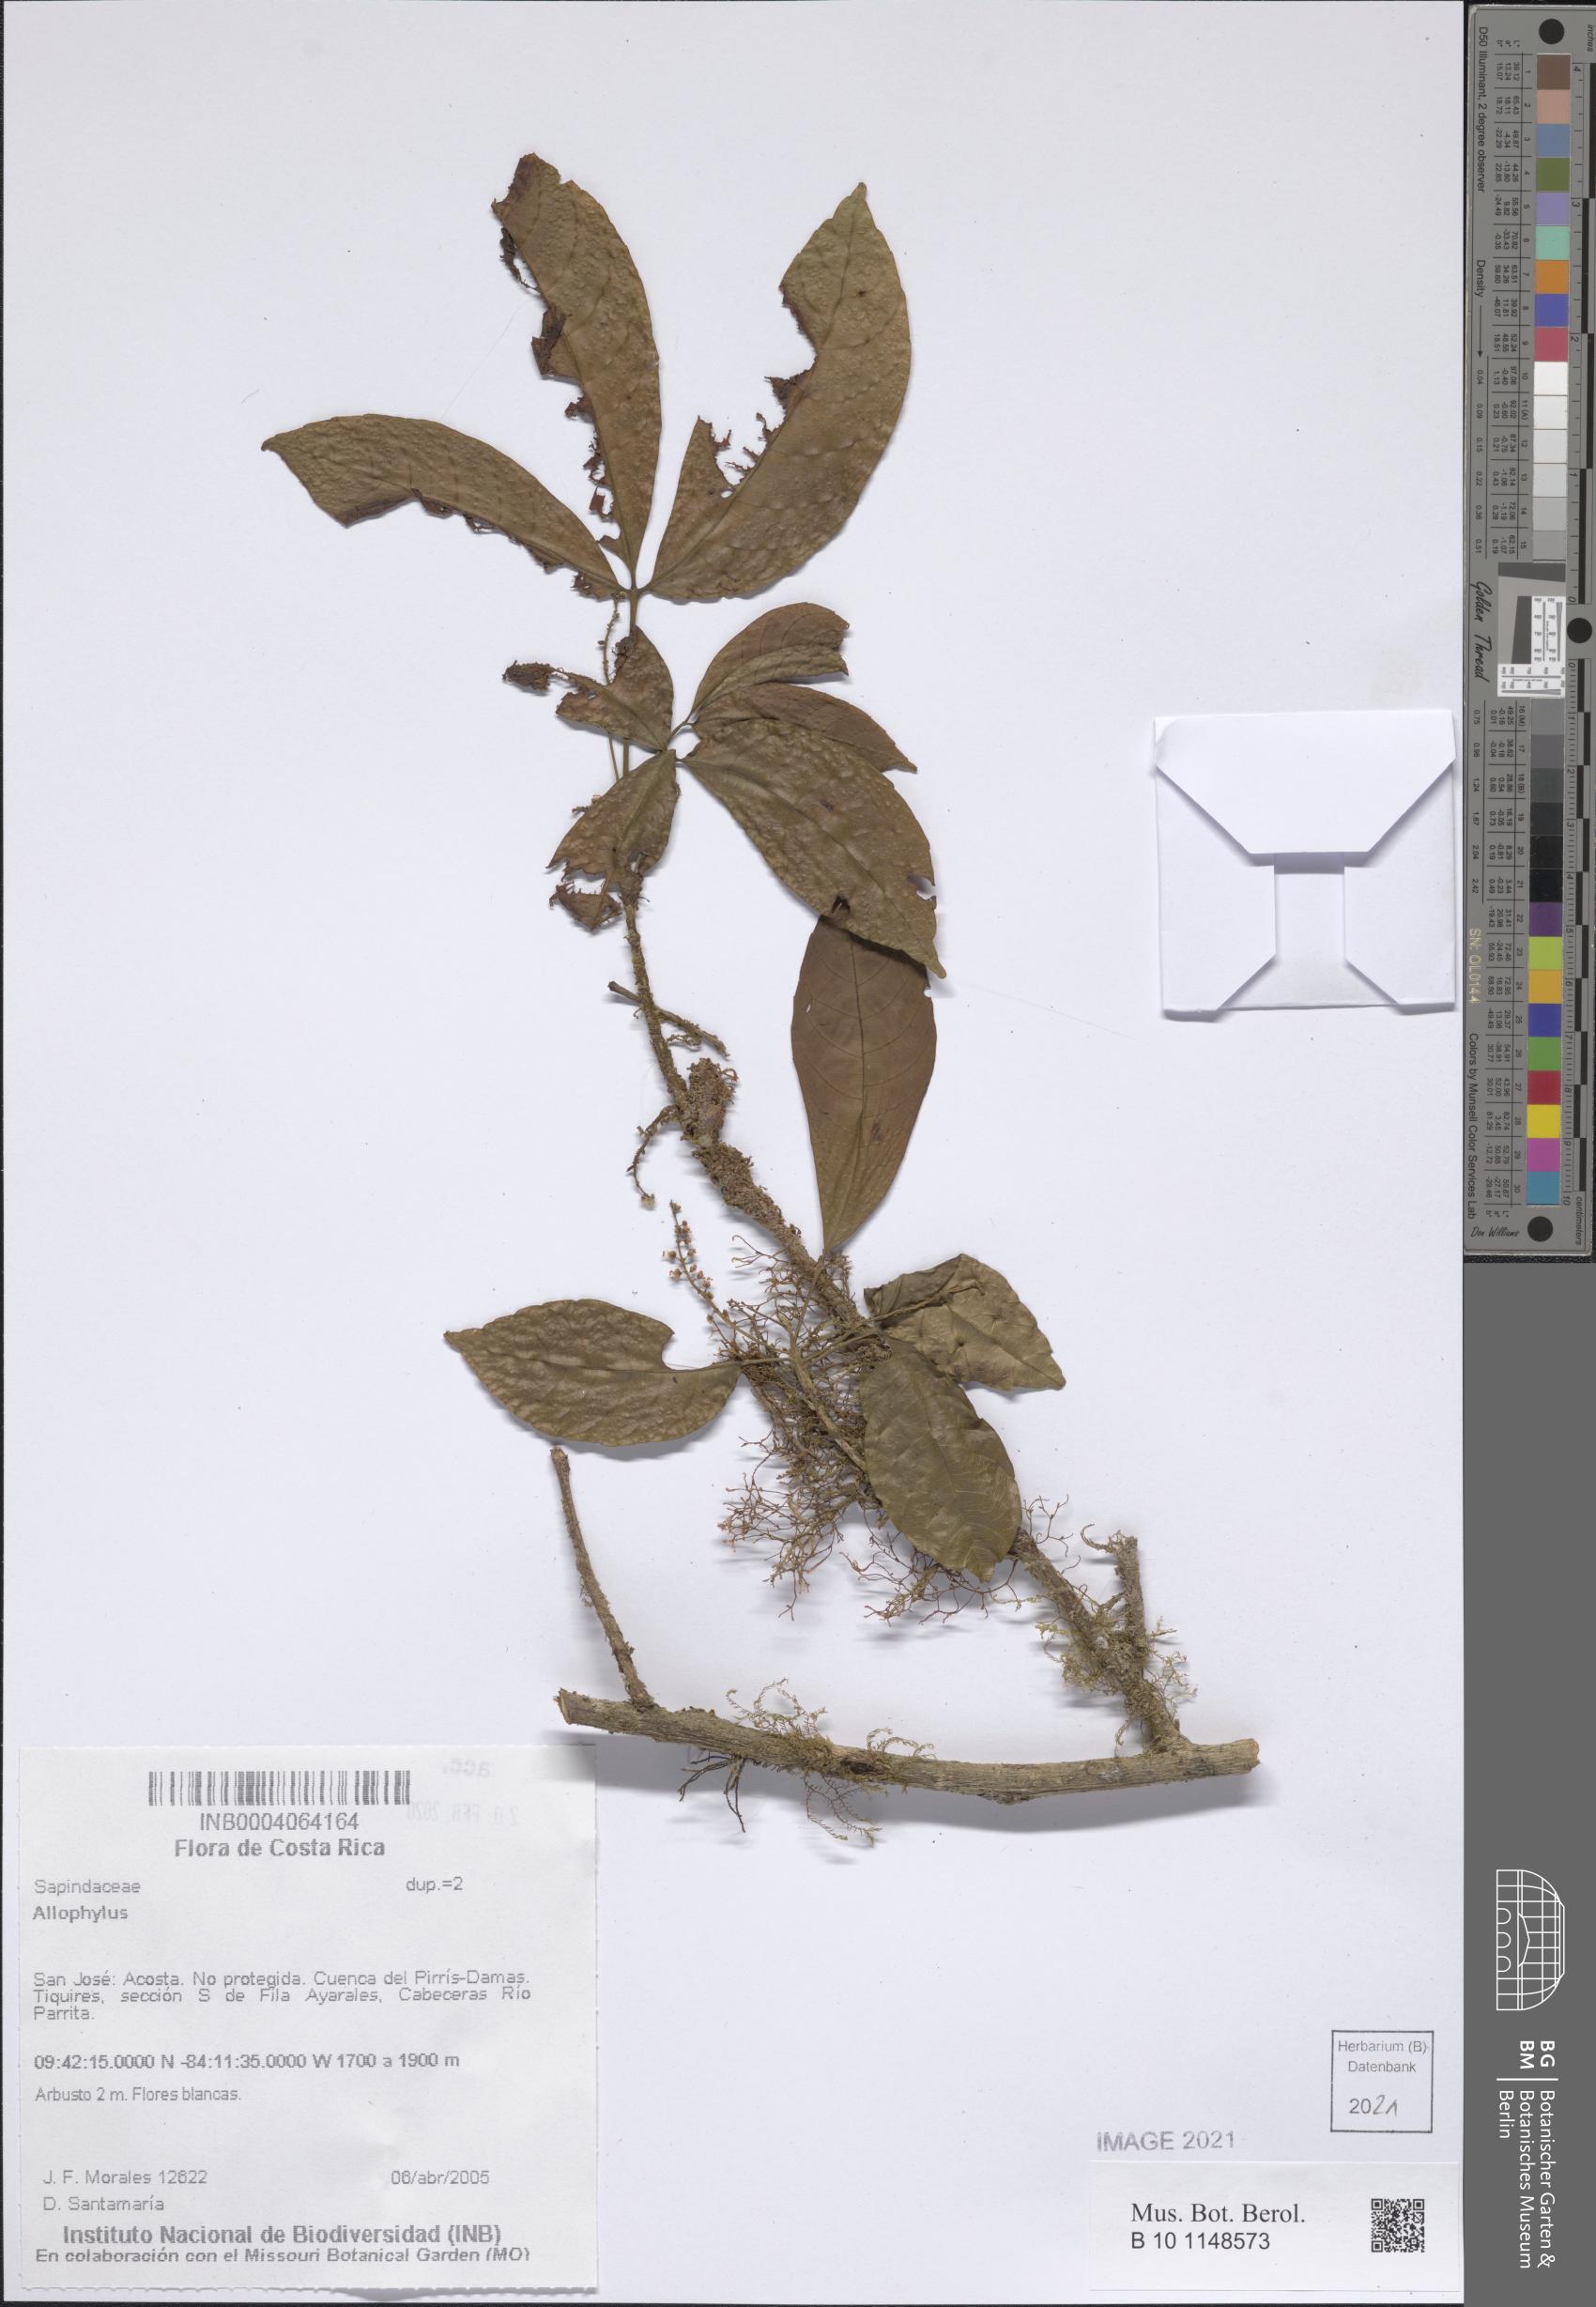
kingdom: Plantae
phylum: Tracheophyta
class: Magnoliopsida
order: Sapindales
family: Sapindaceae
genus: Allophylus
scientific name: Allophylus
